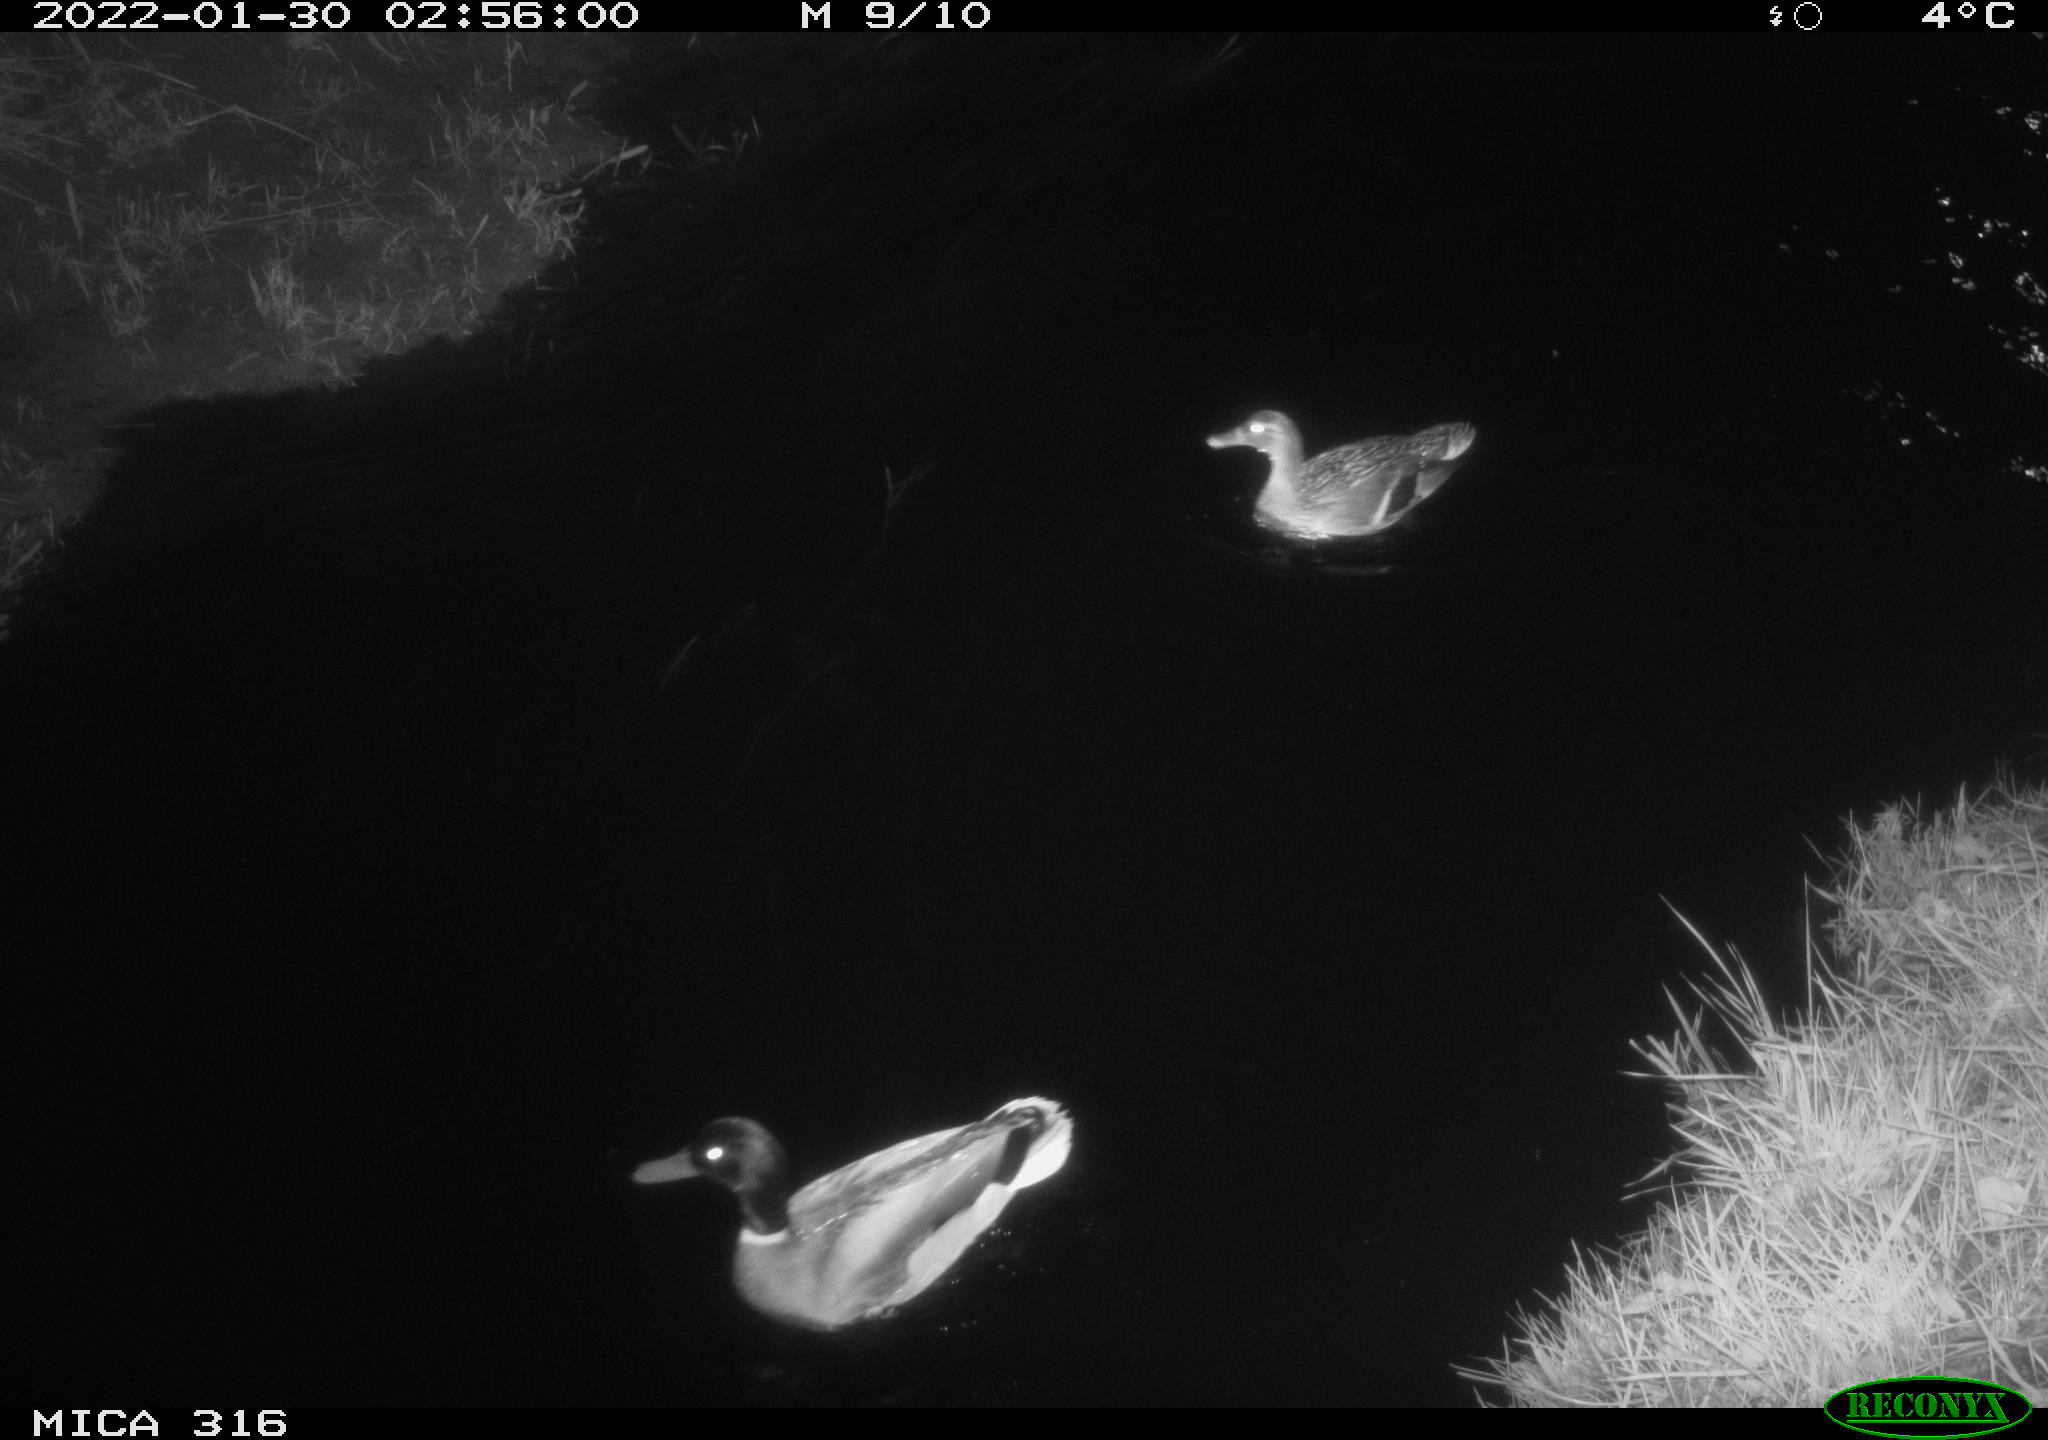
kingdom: Animalia
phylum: Chordata
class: Aves
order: Anseriformes
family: Anatidae
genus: Anas
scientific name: Anas platyrhynchos
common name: Mallard
